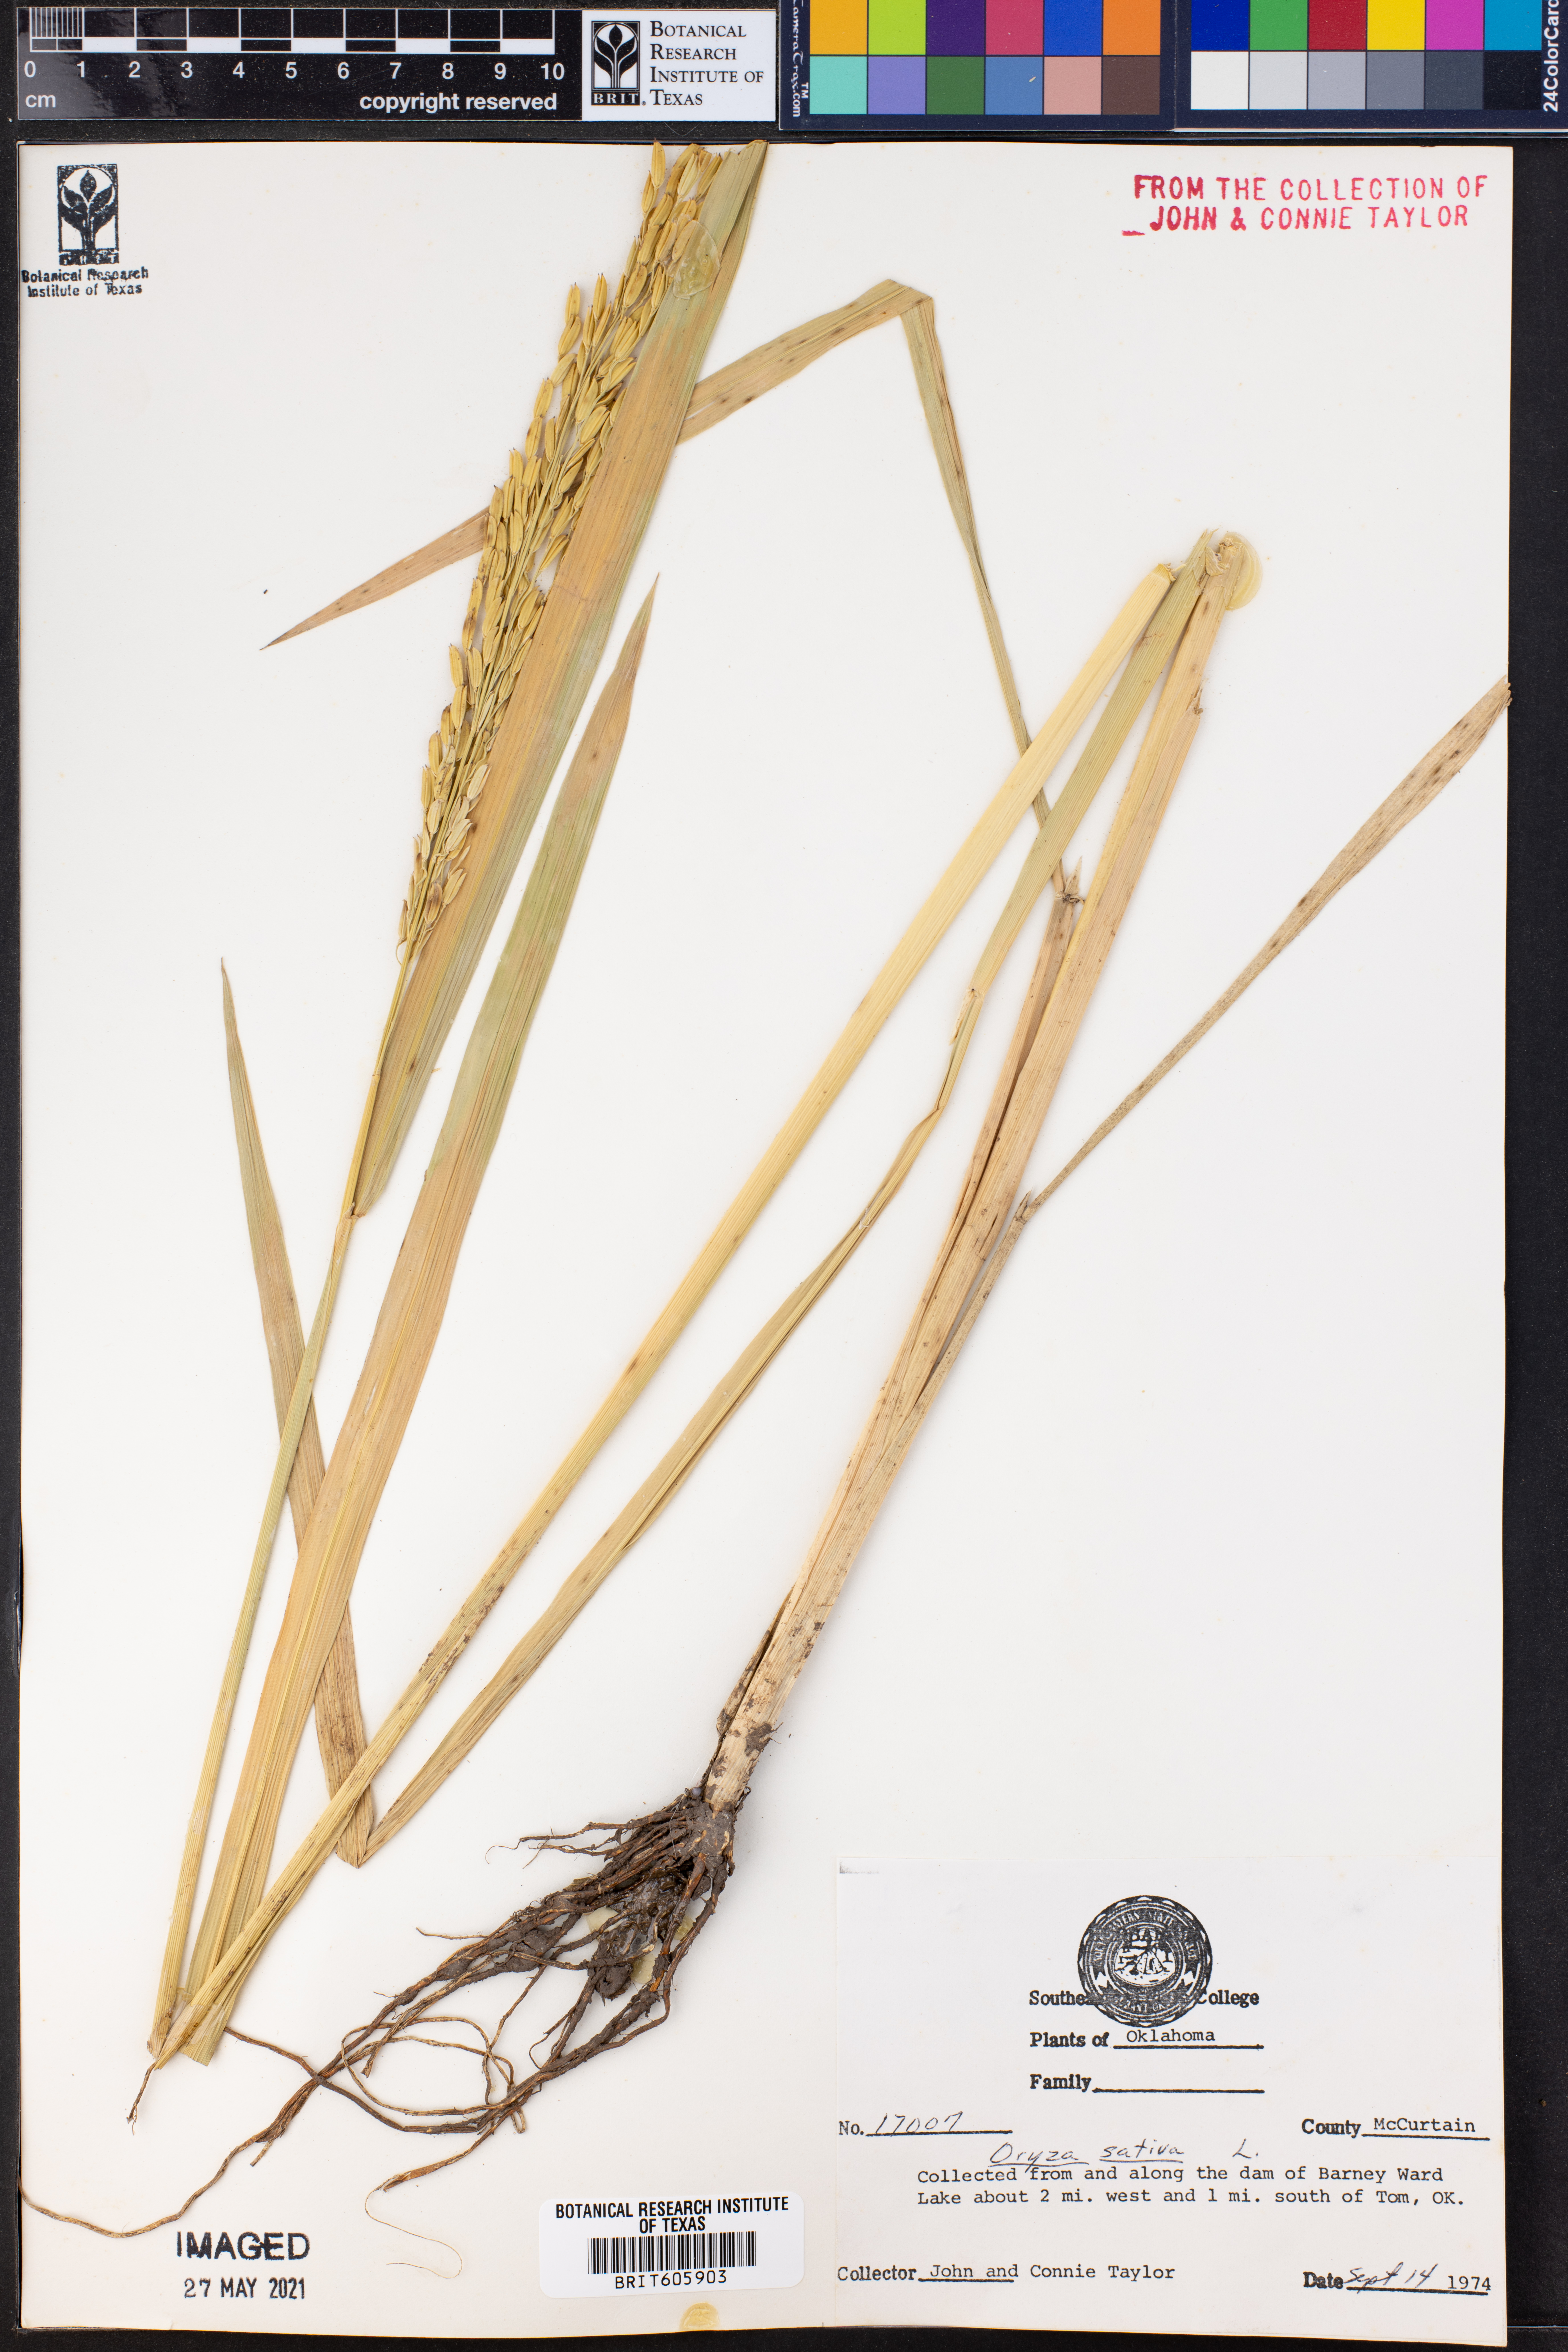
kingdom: Plantae
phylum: Tracheophyta
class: Liliopsida
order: Poales
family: Poaceae
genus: Oryza
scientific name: Oryza sativa
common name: Rice
